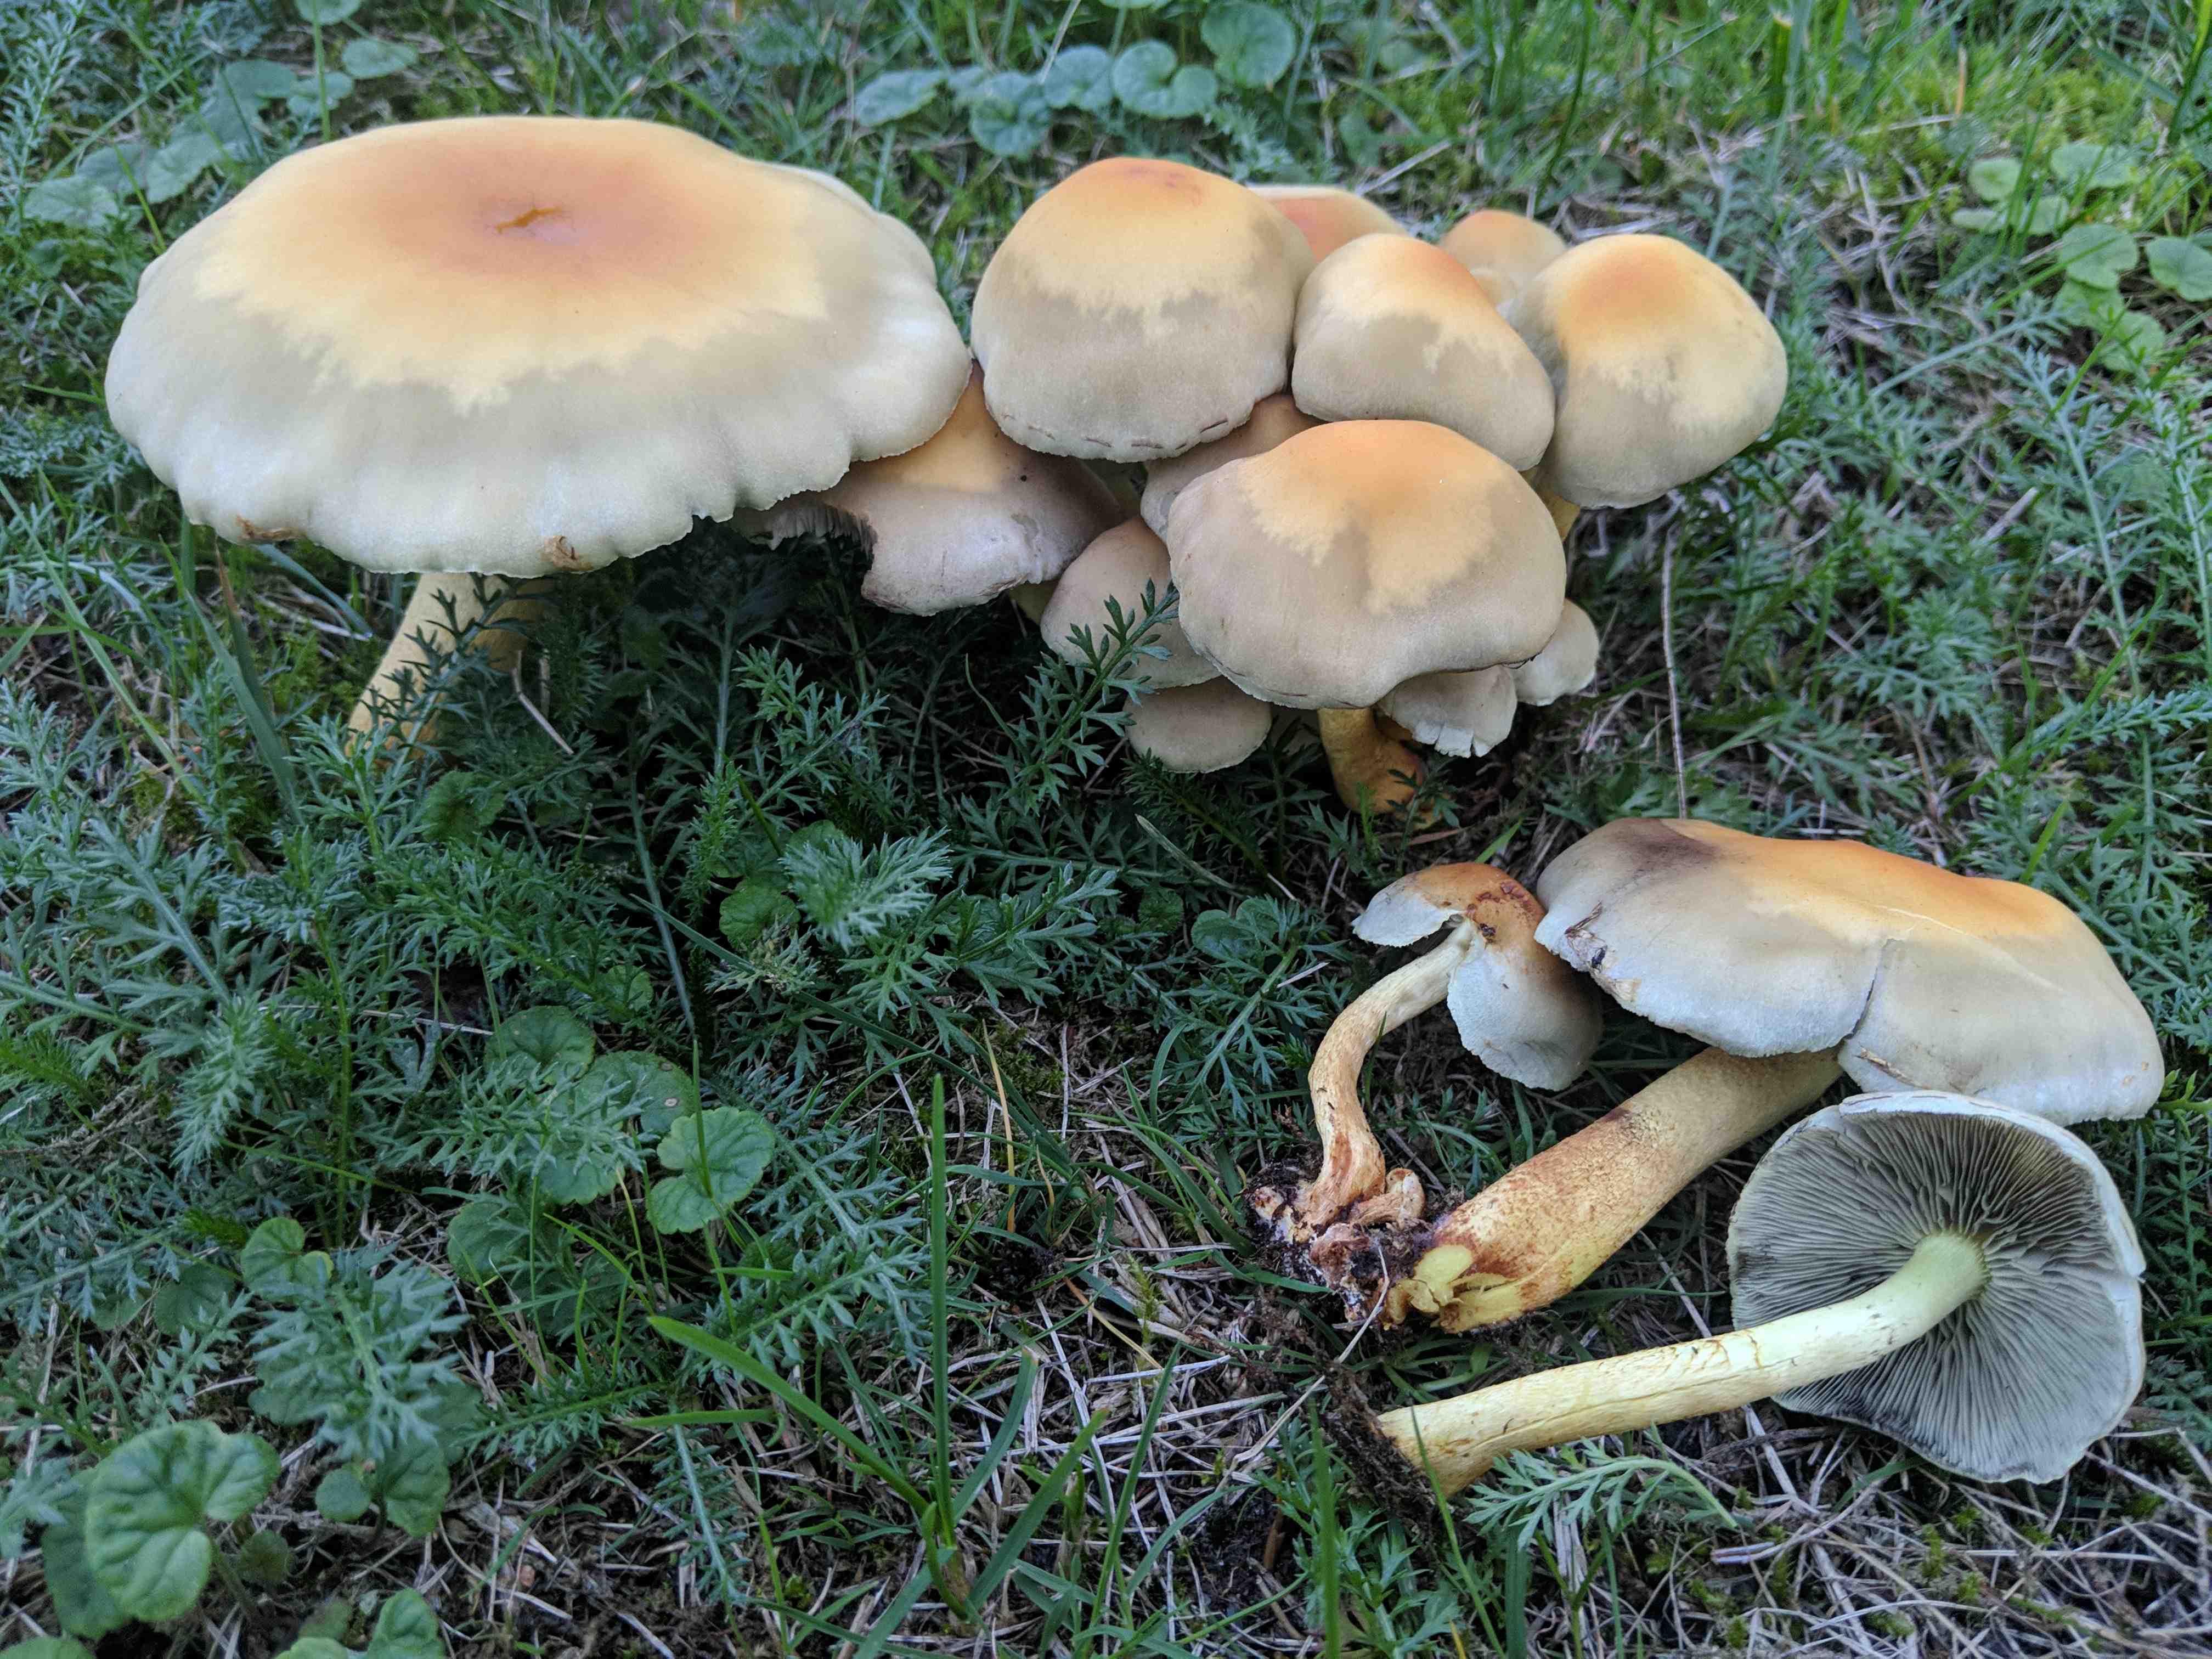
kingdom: Fungi
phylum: Basidiomycota
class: Agaricomycetes
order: Agaricales
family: Strophariaceae
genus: Hypholoma
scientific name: Hypholoma fasciculare
